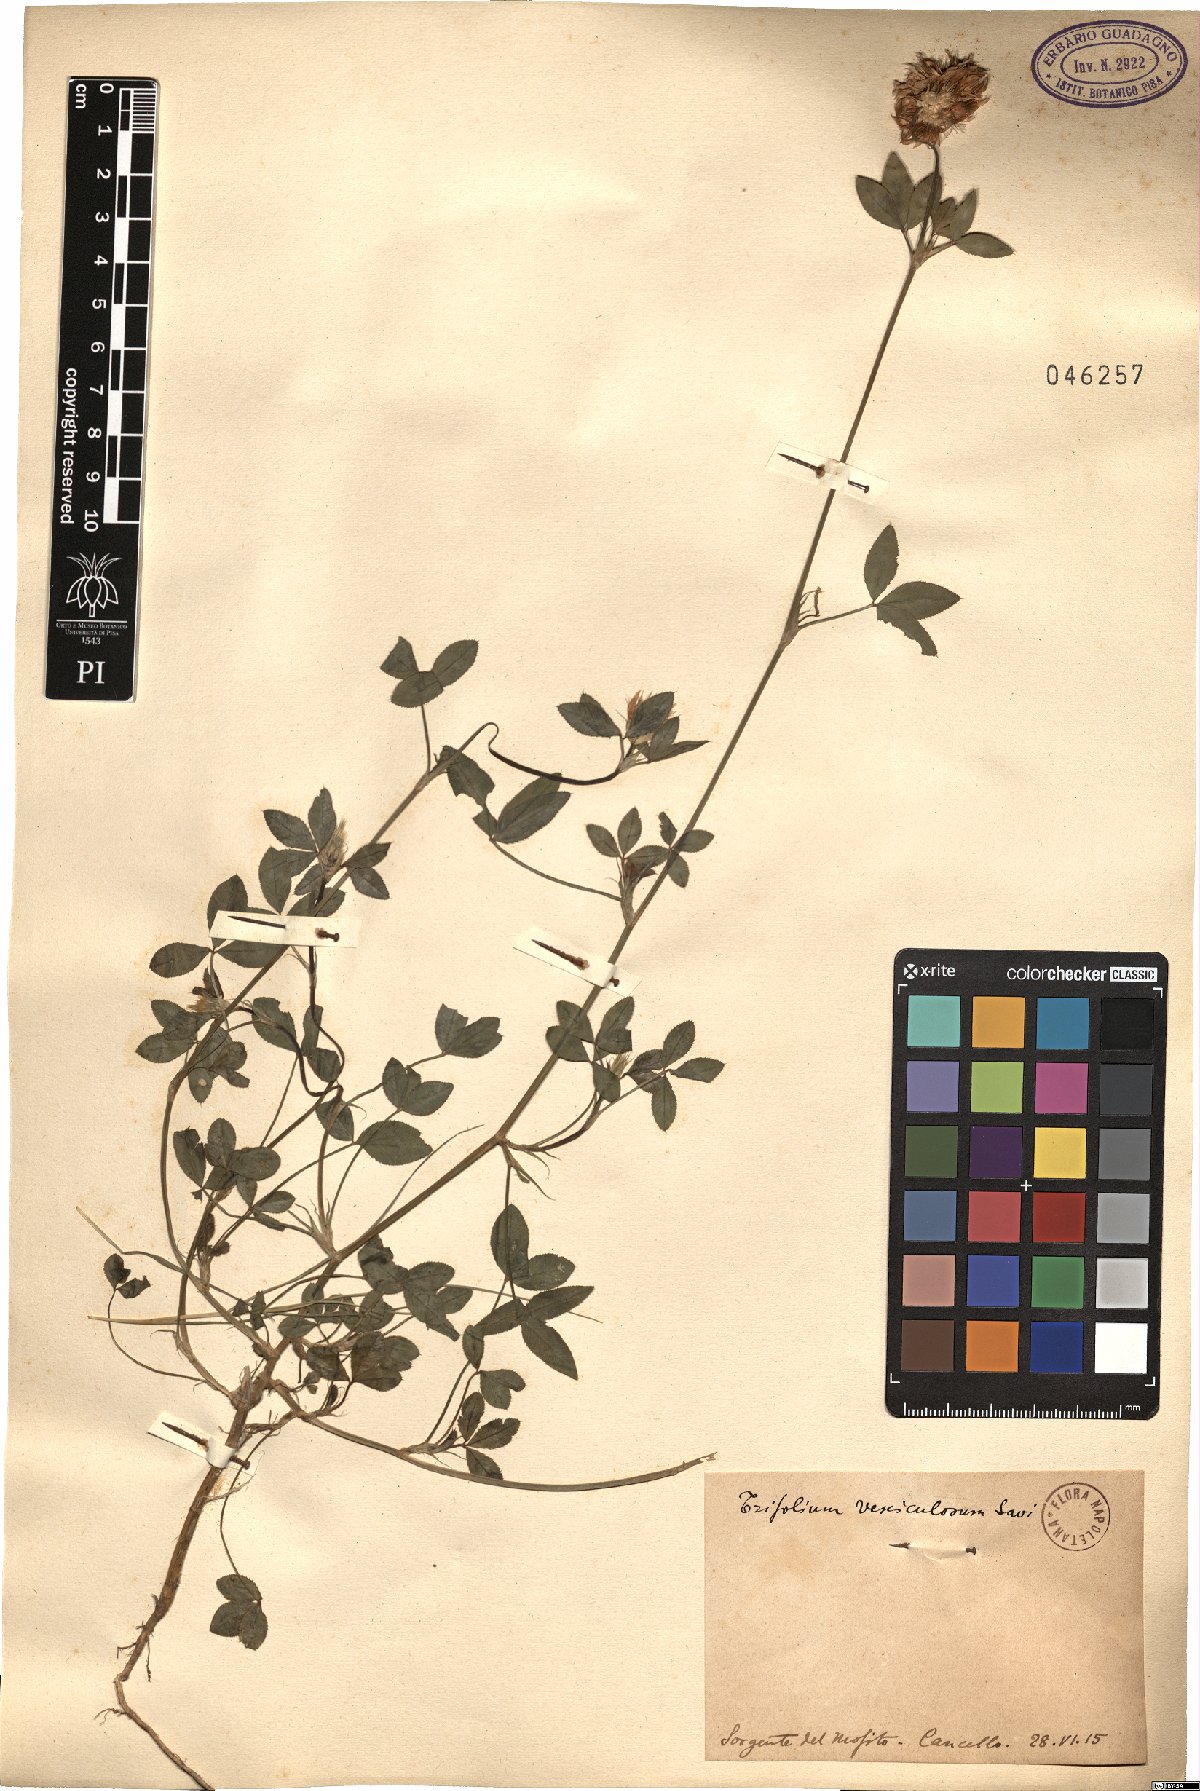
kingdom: Plantae
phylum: Tracheophyta
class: Magnoliopsida
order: Fabales
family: Fabaceae
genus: Trifolium
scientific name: Trifolium vesiculosum
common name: Arrowleaf clover
